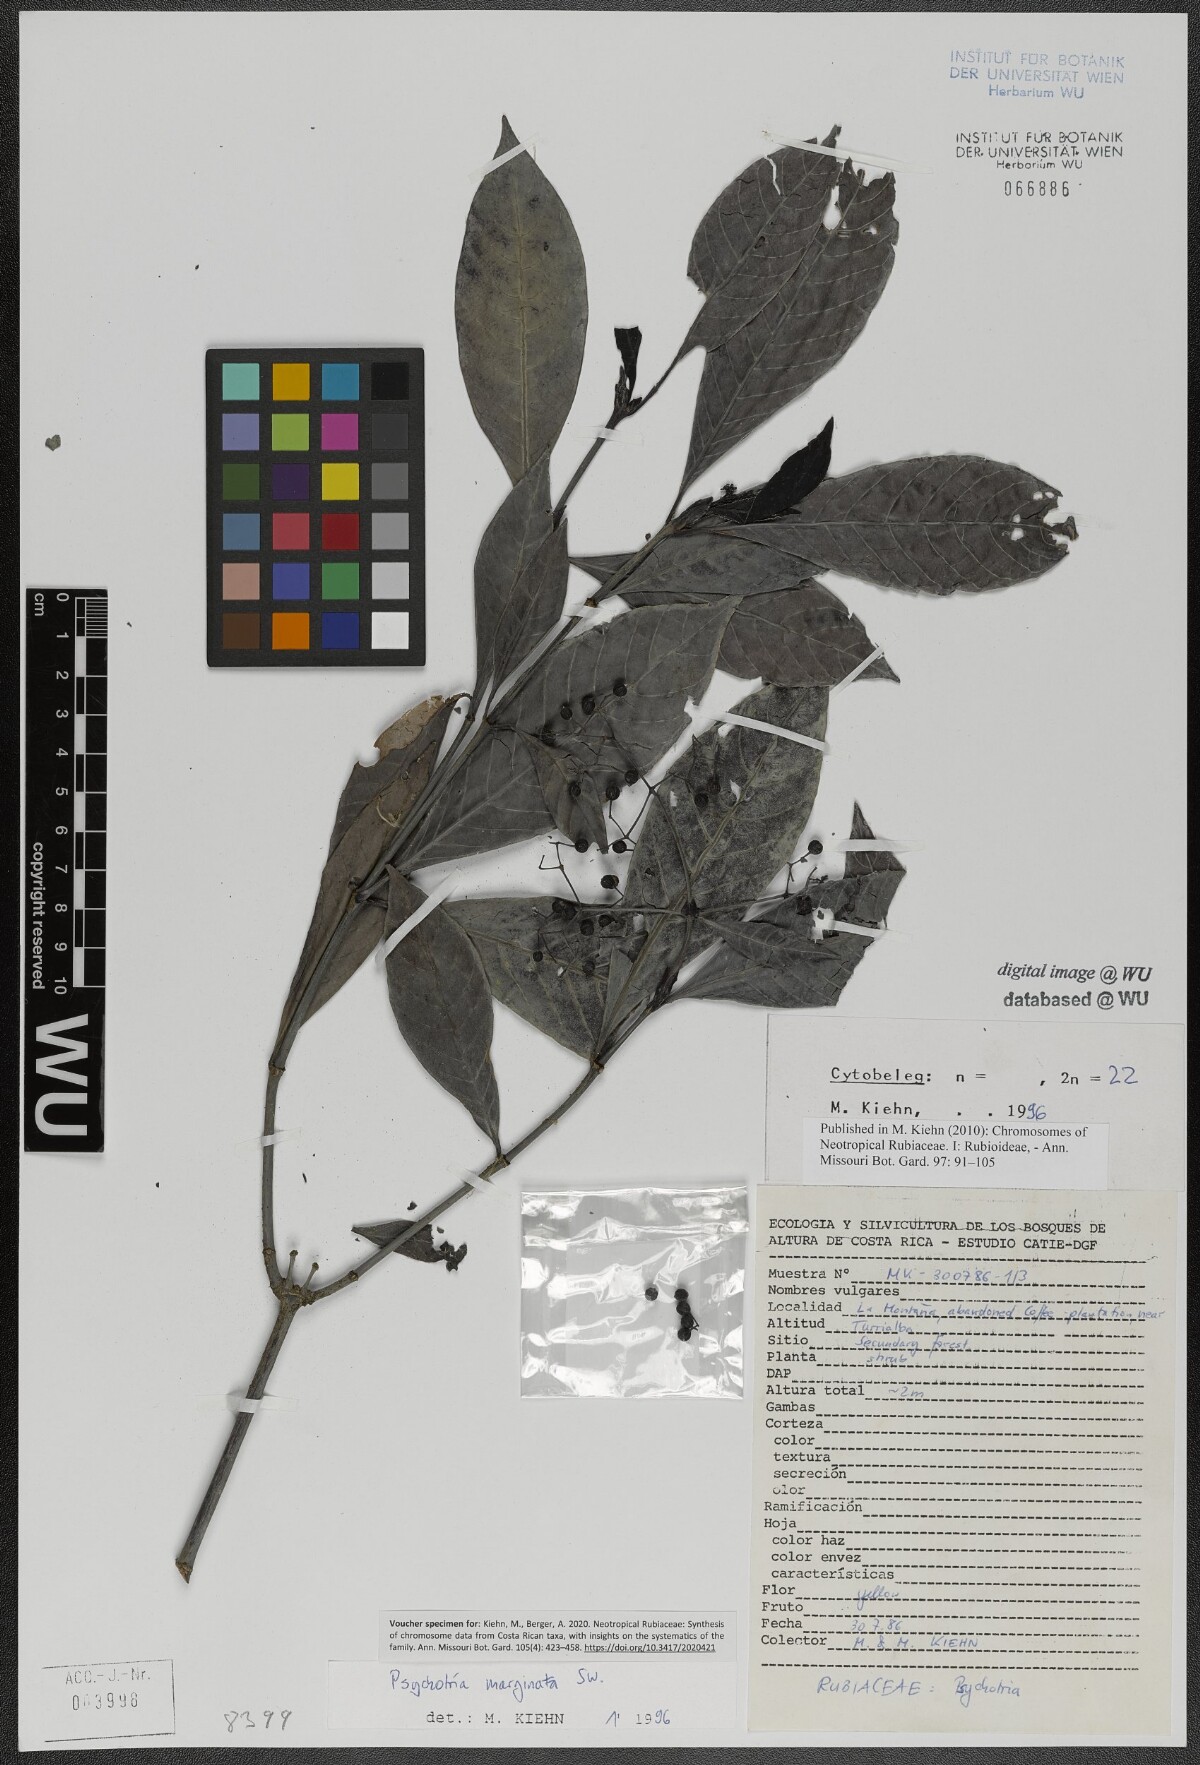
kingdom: Plantae
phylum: Tracheophyta
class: Magnoliopsida
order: Gentianales
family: Rubiaceae
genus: Psychotria
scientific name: Psychotria marginata
